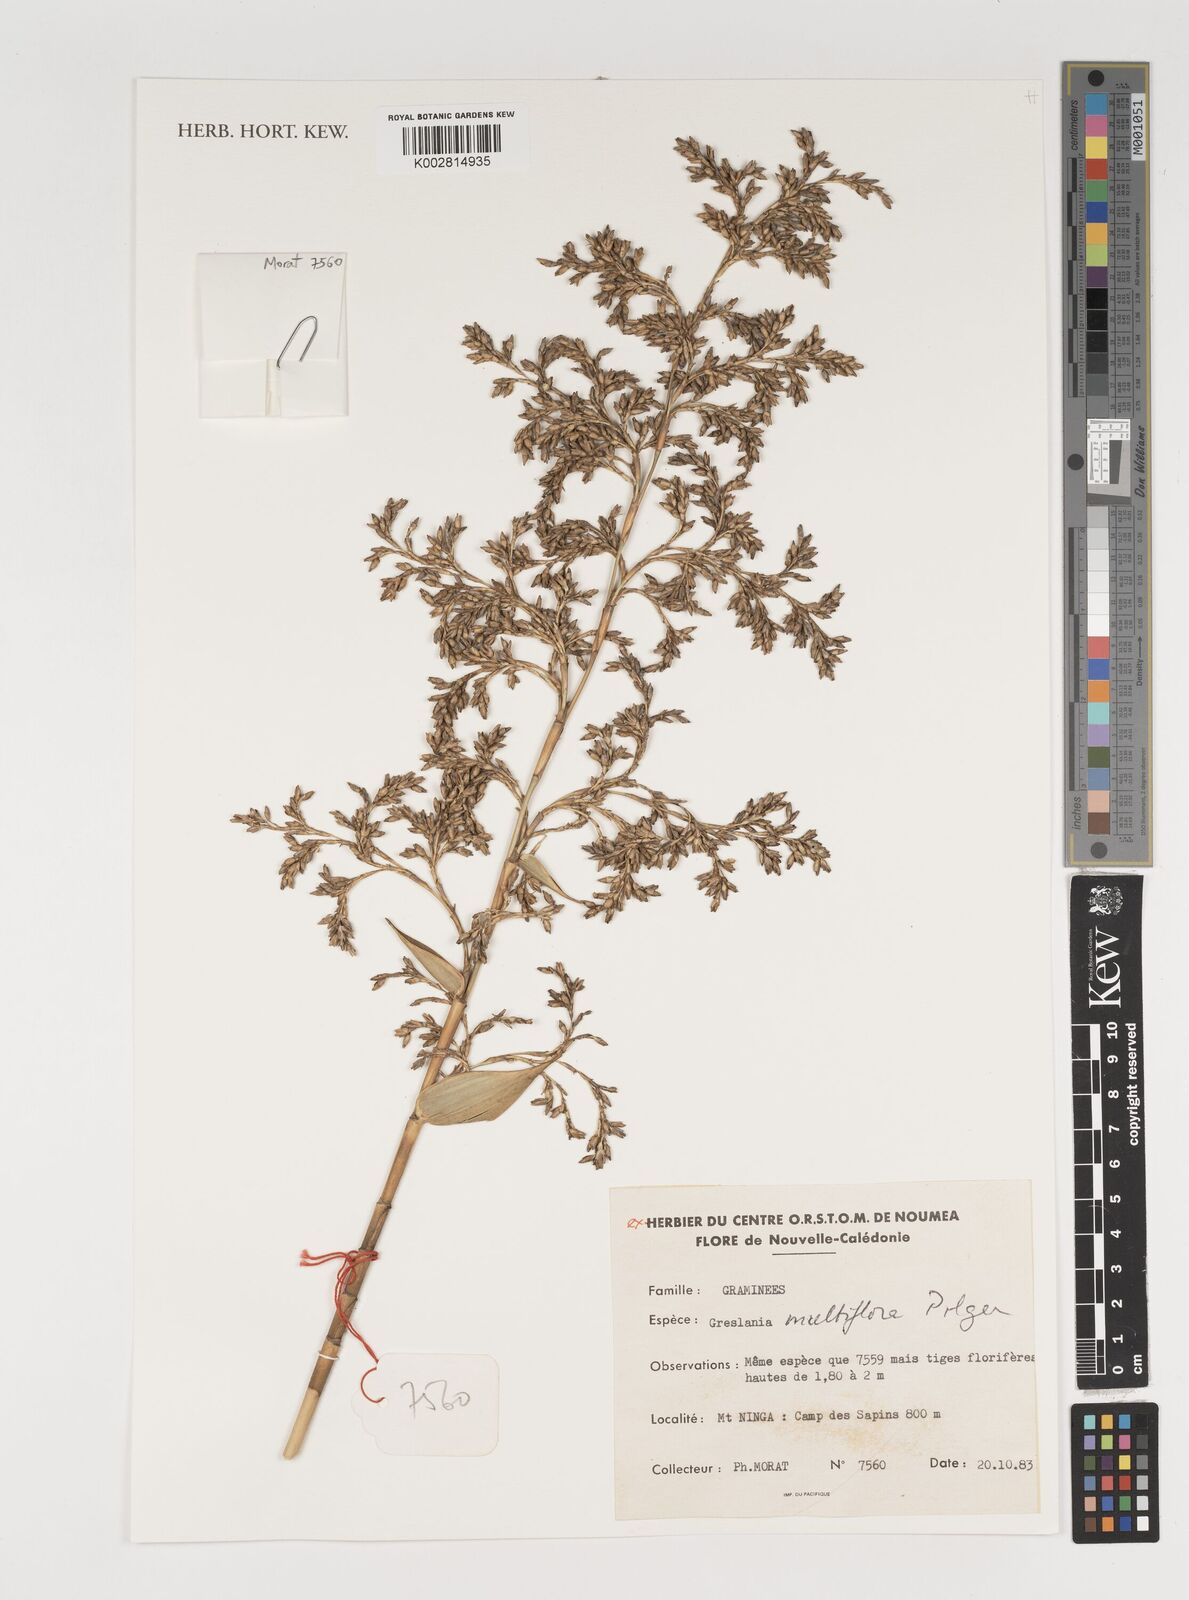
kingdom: Plantae
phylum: Tracheophyta
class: Liliopsida
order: Poales
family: Poaceae
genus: Greslania
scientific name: Greslania circinata
